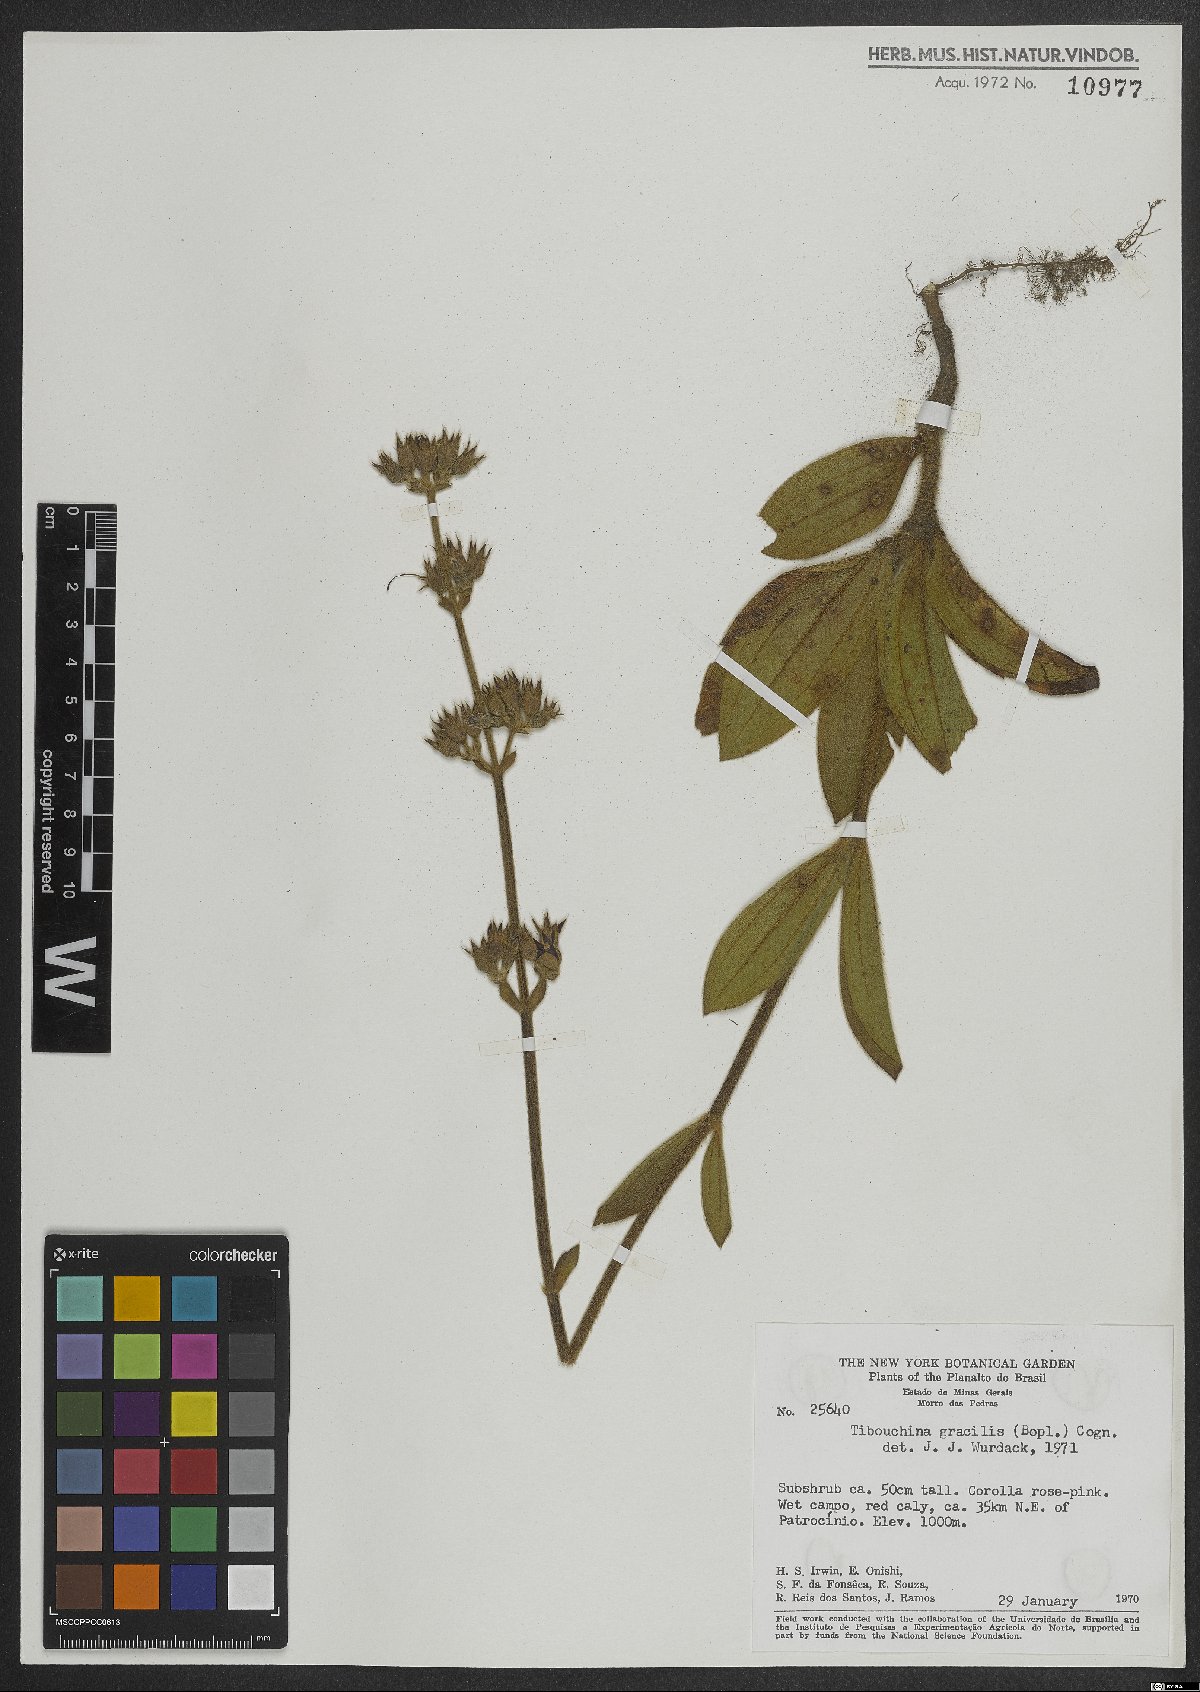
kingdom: Plantae
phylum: Tracheophyta
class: Magnoliopsida
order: Myrtales
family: Melastomataceae
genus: Chaetogastra
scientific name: Chaetogastra gracilis
